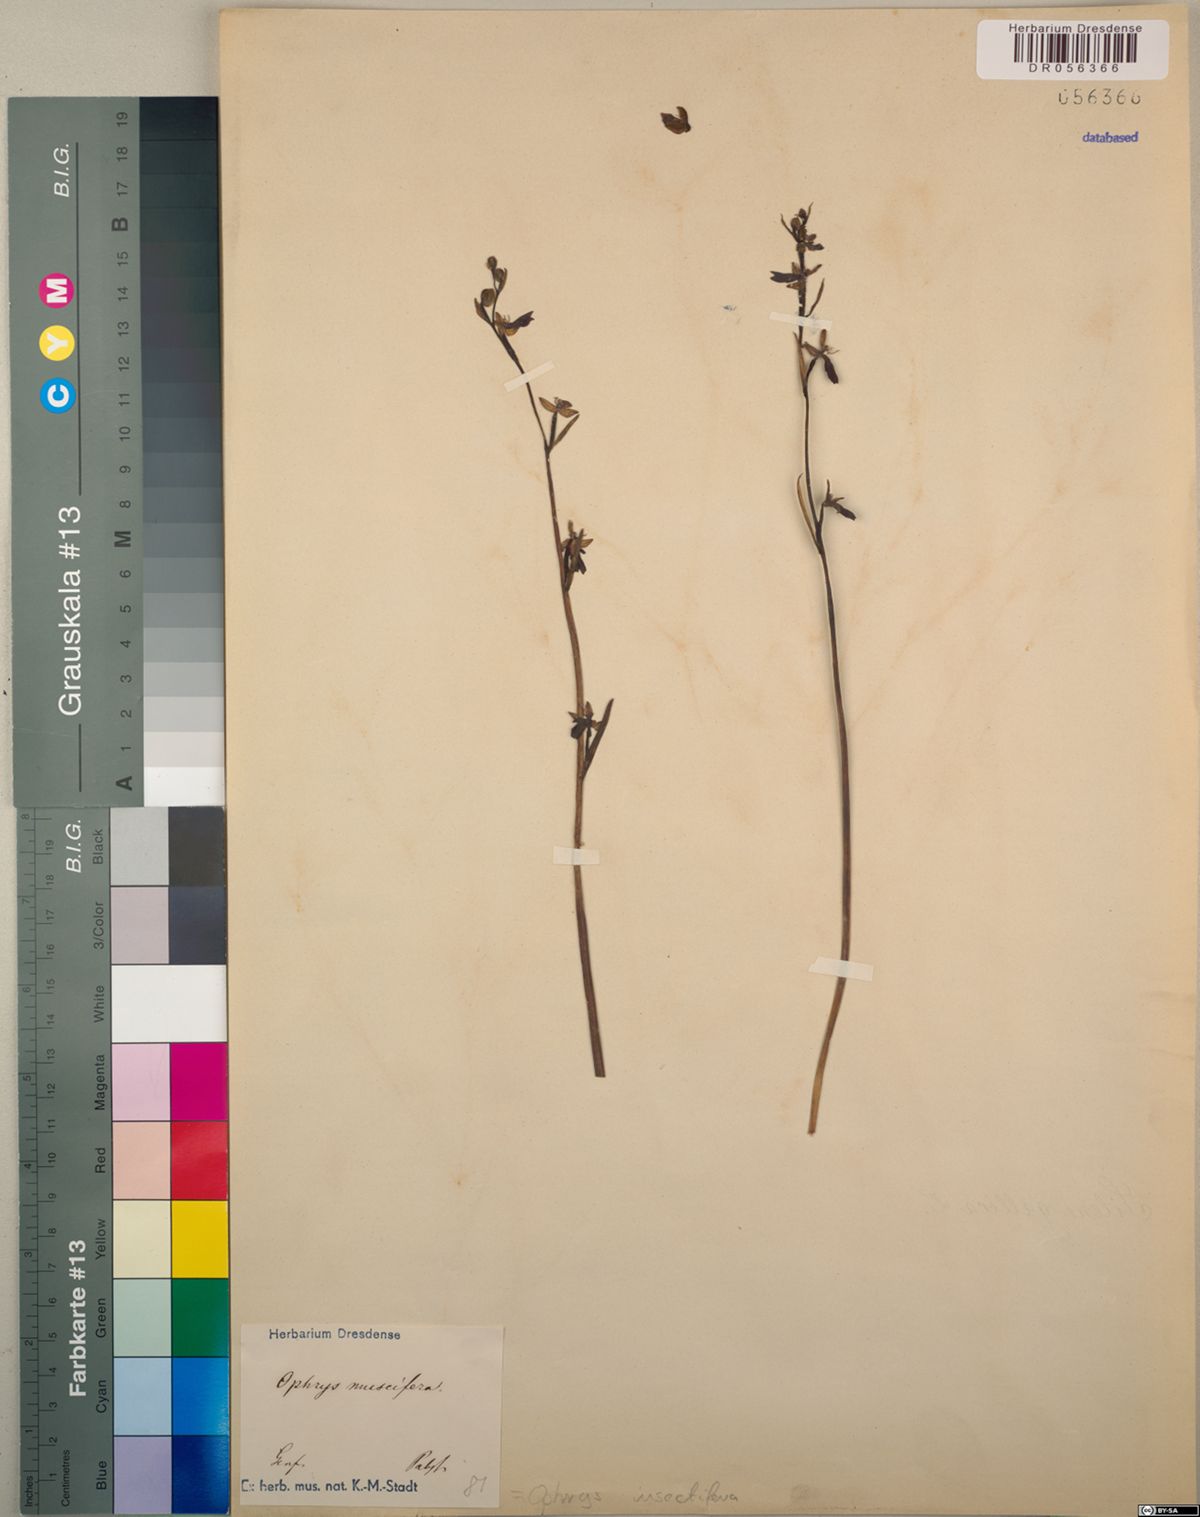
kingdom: Plantae
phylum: Tracheophyta
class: Liliopsida
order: Asparagales
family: Orchidaceae
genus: Ophrys
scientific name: Ophrys insectifera
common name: Fly orchid
